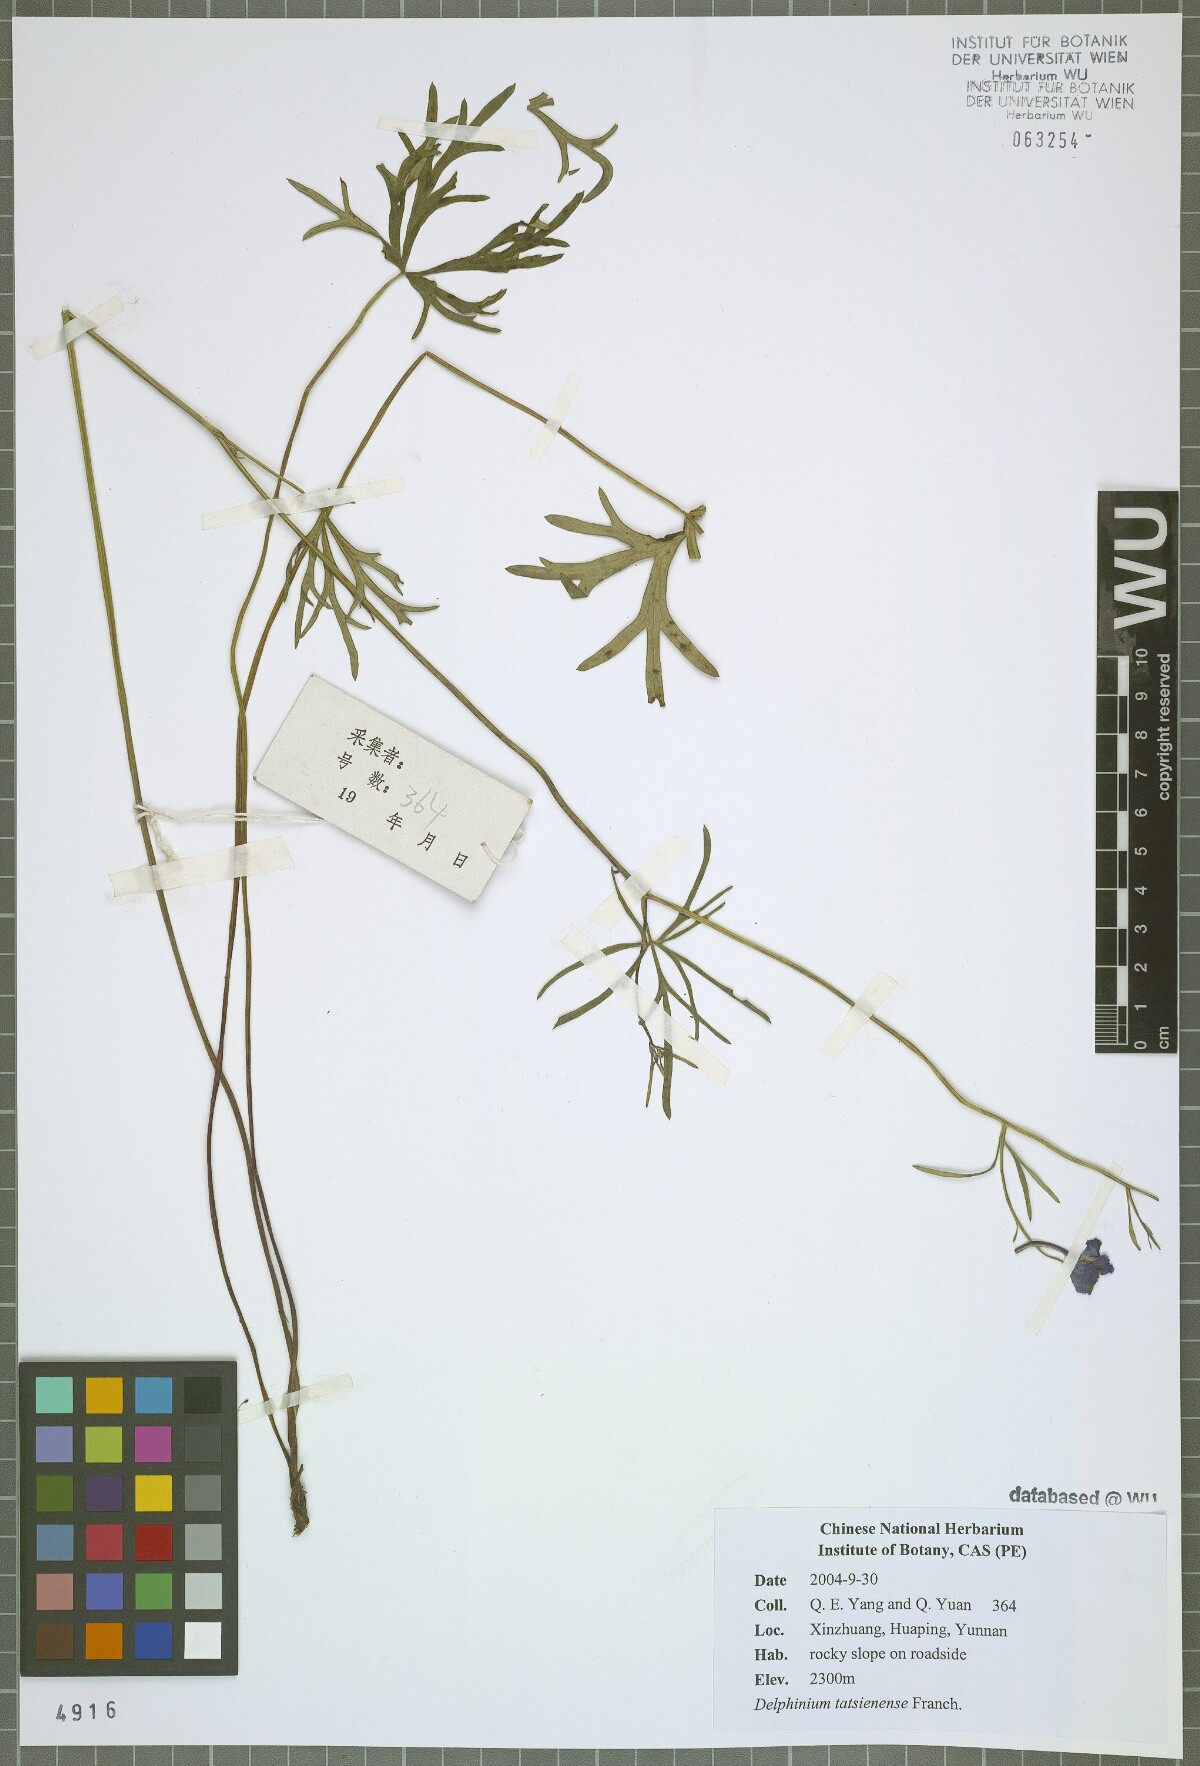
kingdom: Plantae
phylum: Tracheophyta
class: Magnoliopsida
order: Ranunculales
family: Ranunculaceae
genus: Delphinium
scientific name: Delphinium tatsienense
